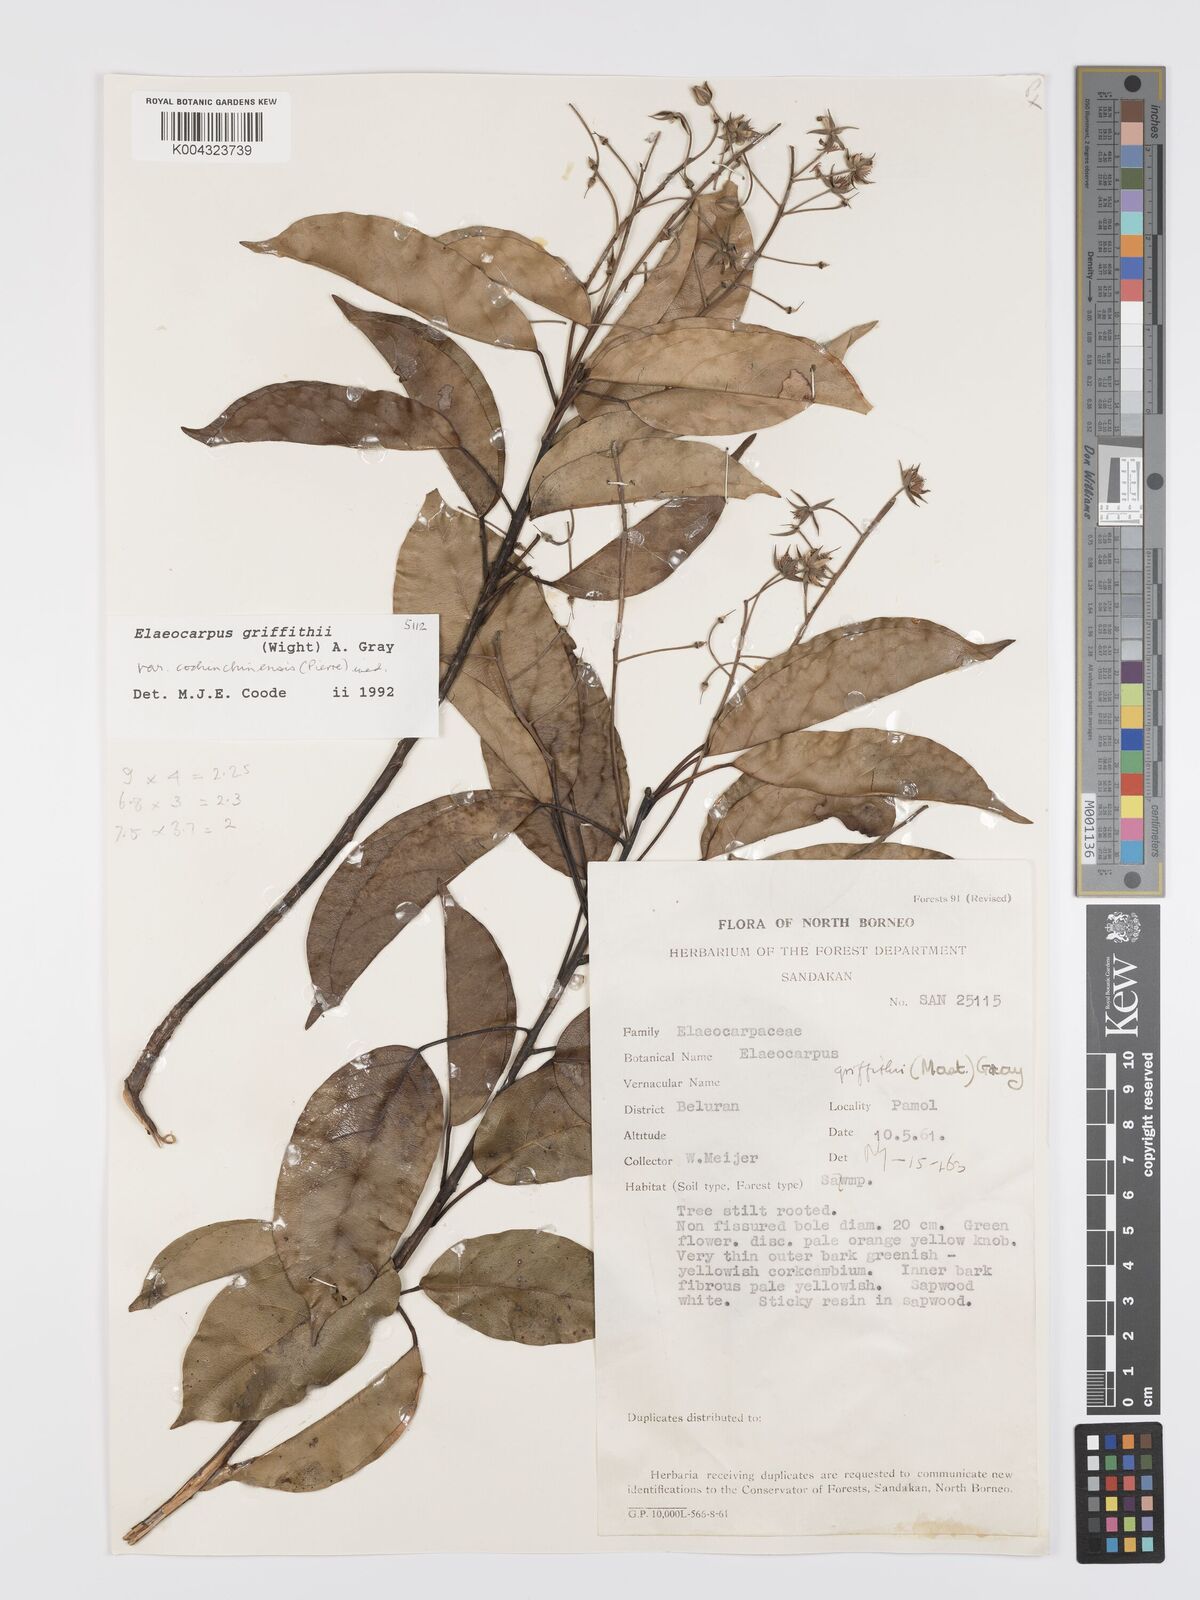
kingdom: Plantae
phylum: Tracheophyta
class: Magnoliopsida
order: Oxalidales
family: Elaeocarpaceae
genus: Elaeocarpus
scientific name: Elaeocarpus griffithii
